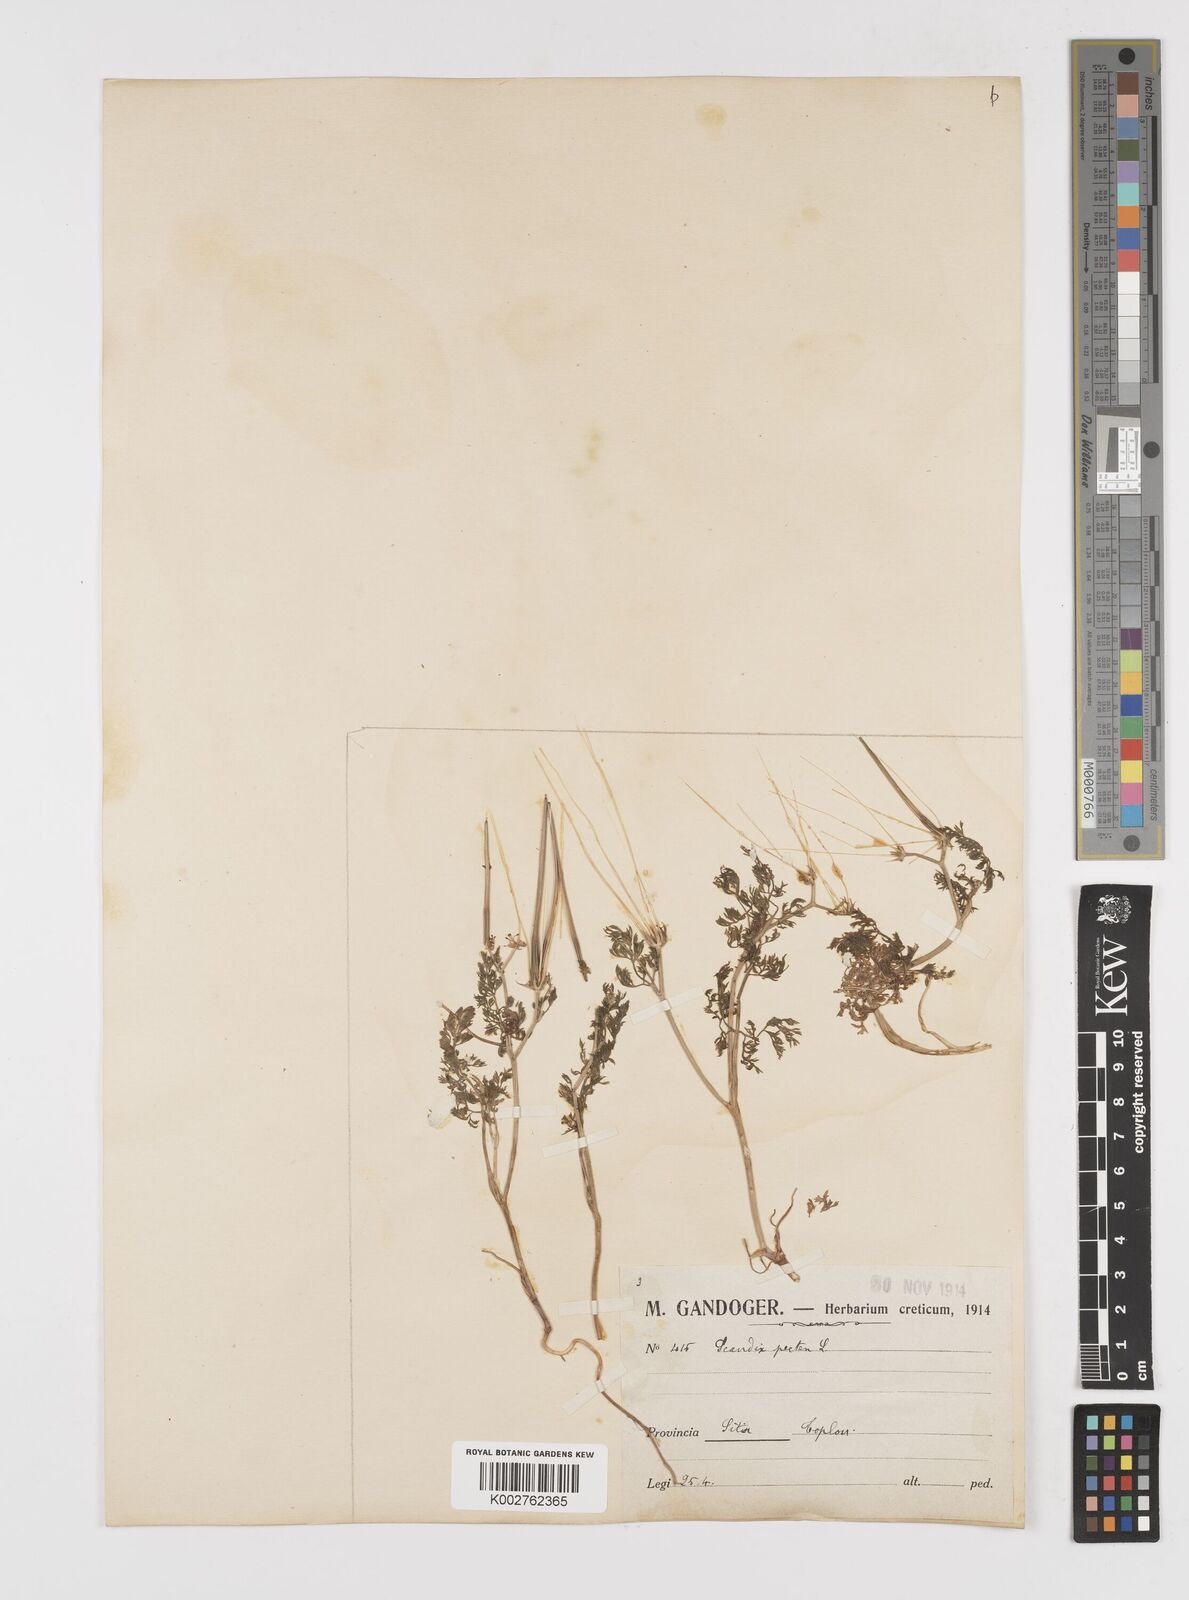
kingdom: Plantae
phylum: Tracheophyta
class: Magnoliopsida
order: Apiales
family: Apiaceae
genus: Scandix
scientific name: Scandix pecten-veneris
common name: Shepherd's-needle
